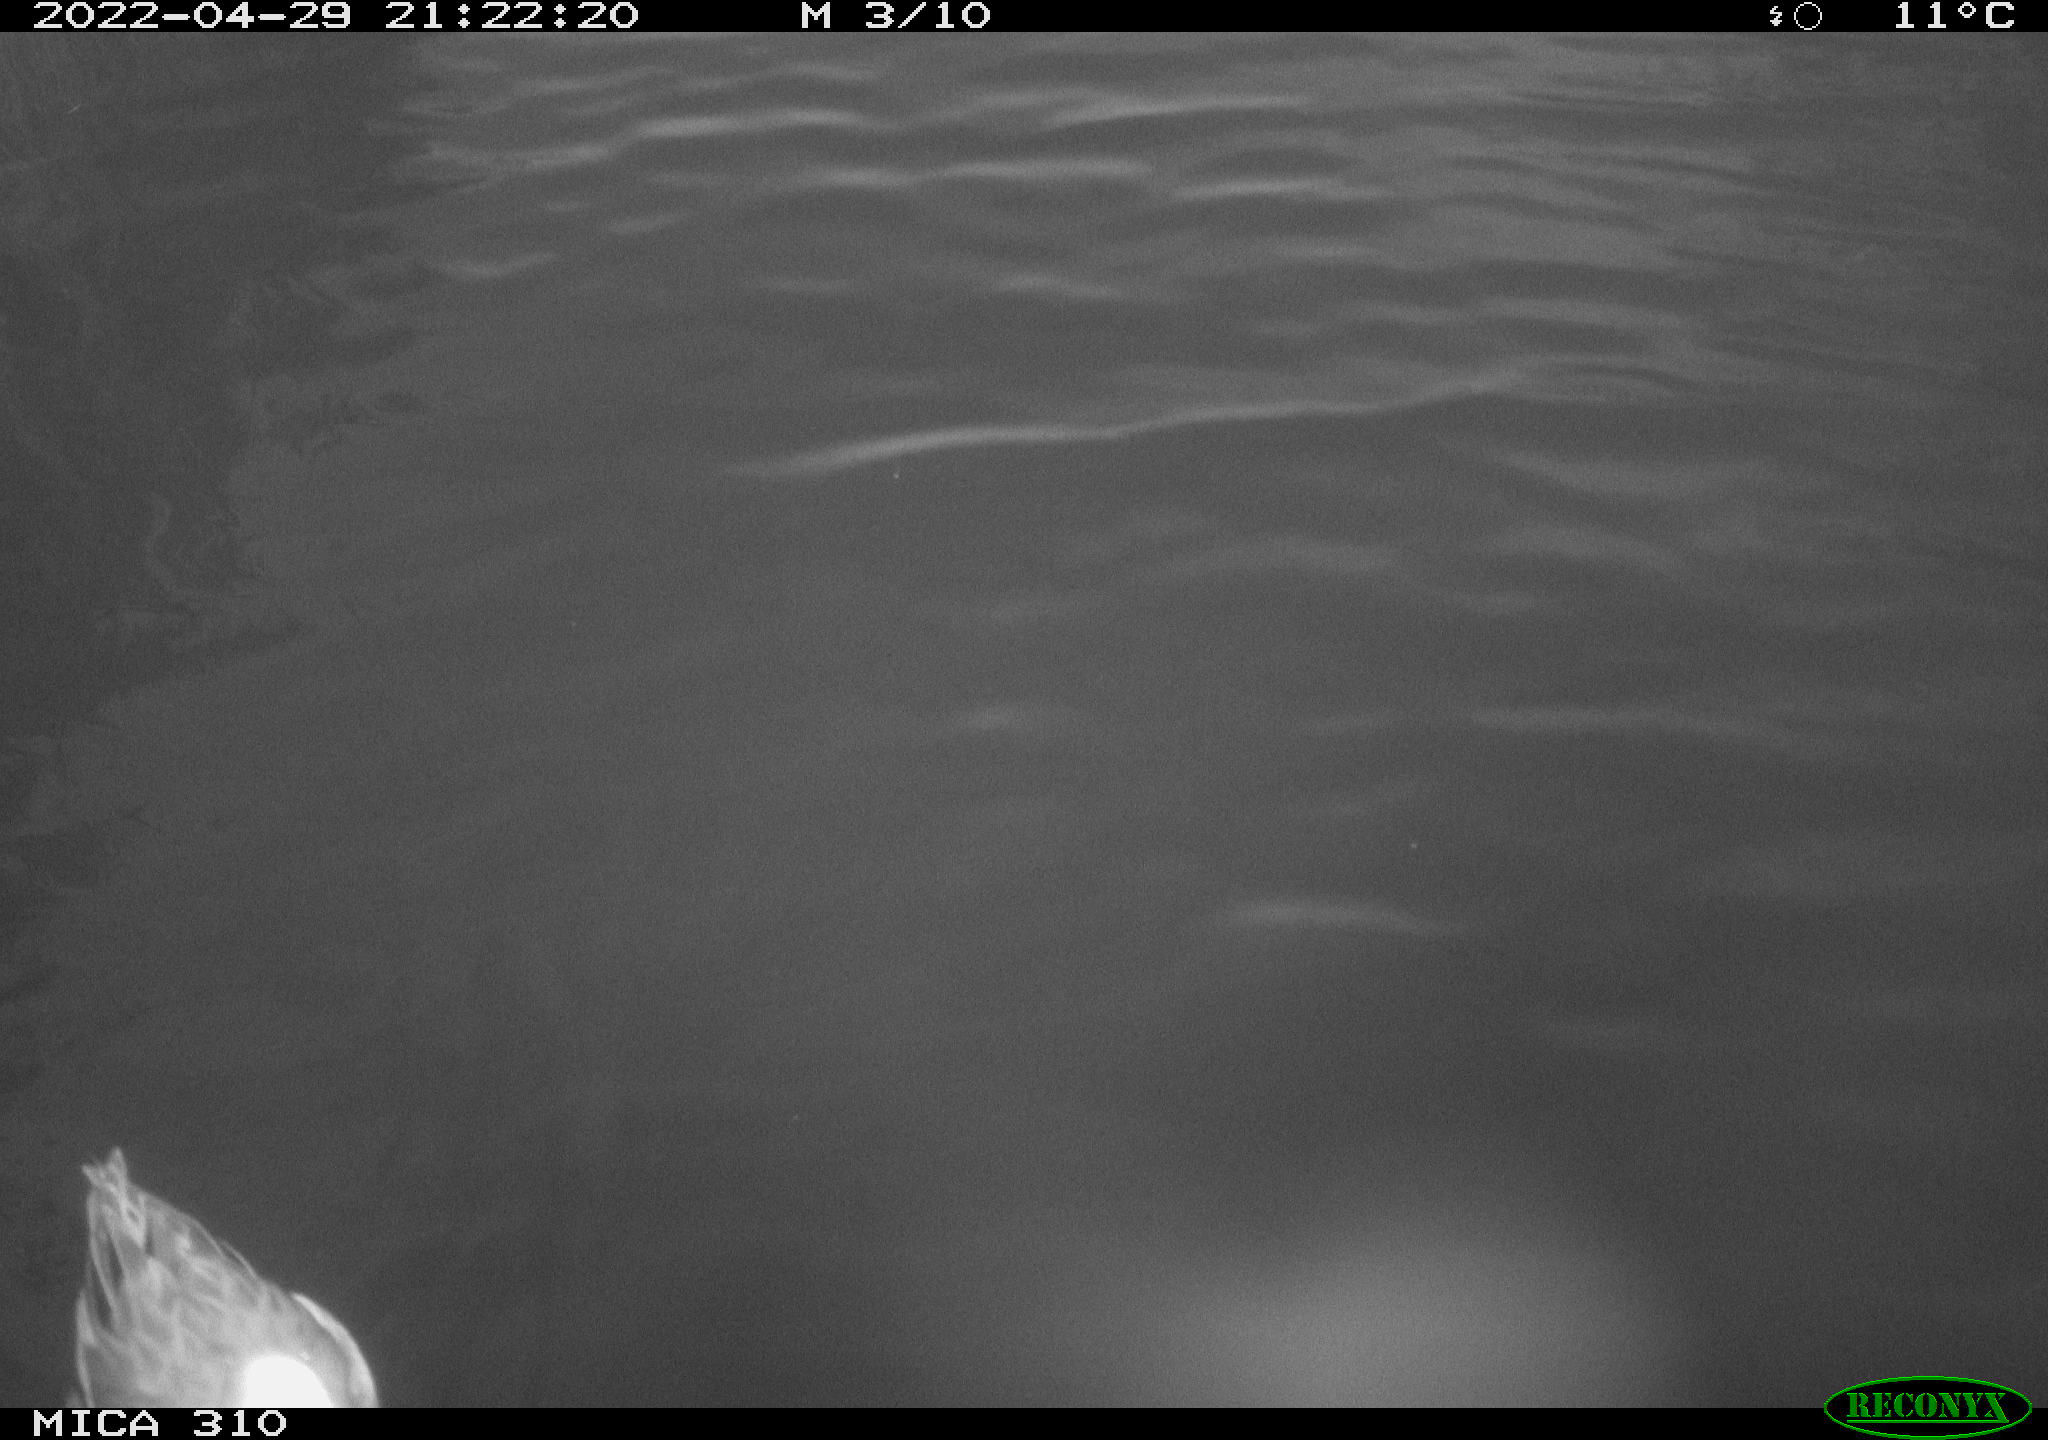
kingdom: Animalia
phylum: Chordata
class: Aves
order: Anseriformes
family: Anatidae
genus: Anas
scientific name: Anas platyrhynchos
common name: Mallard
